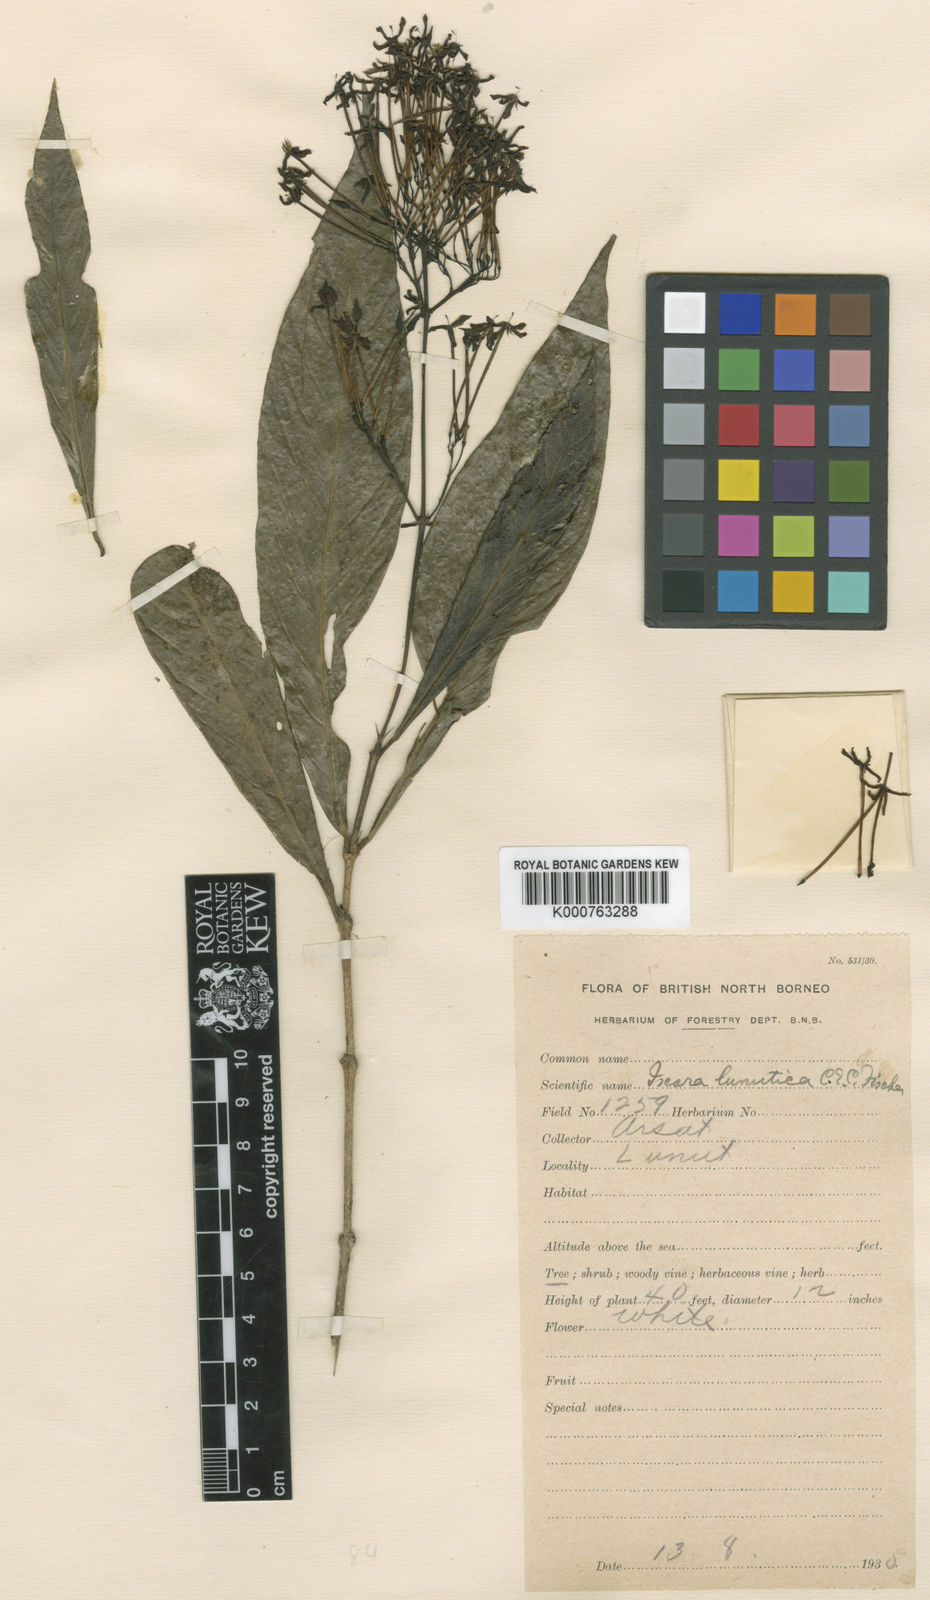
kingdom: Plantae
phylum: Tracheophyta
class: Magnoliopsida
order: Gentianales
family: Rubiaceae
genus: Ixora
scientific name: Ixora lunutica
